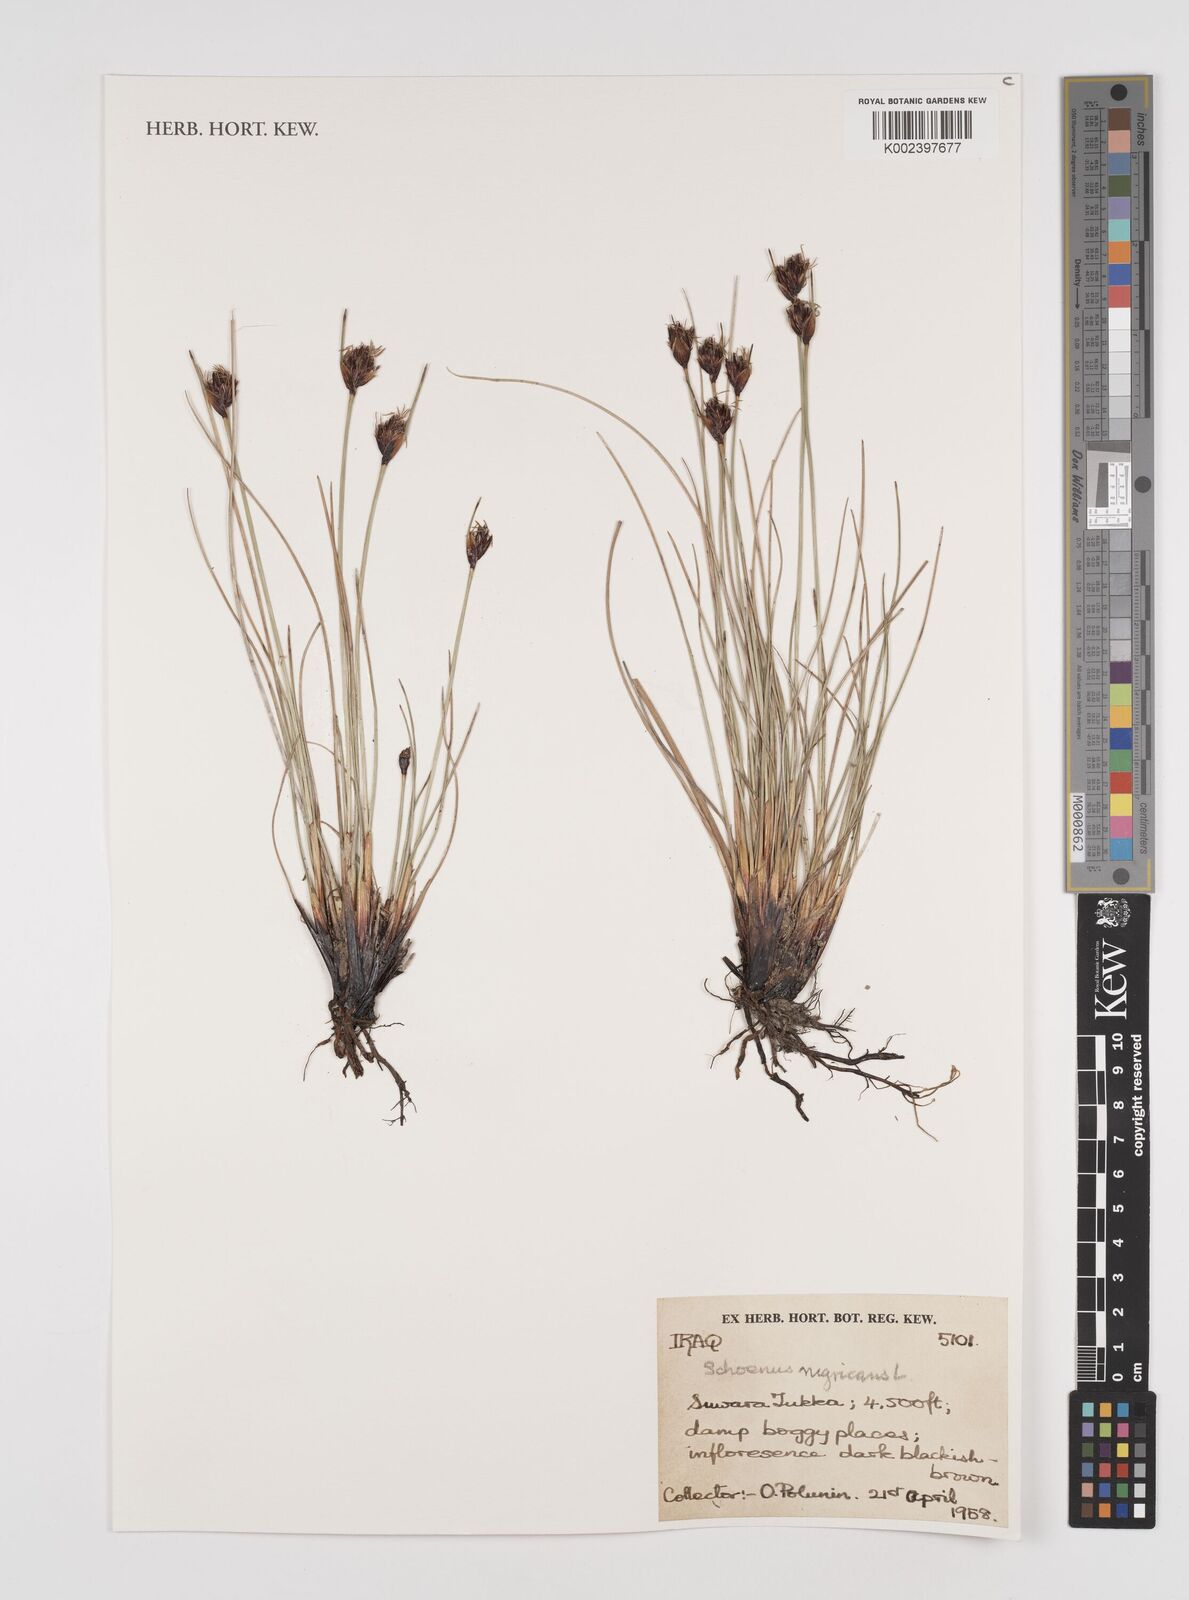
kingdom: Plantae
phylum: Tracheophyta
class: Liliopsida
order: Poales
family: Cyperaceae
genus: Schoenus
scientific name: Schoenus nigricans
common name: Black bog-rush
